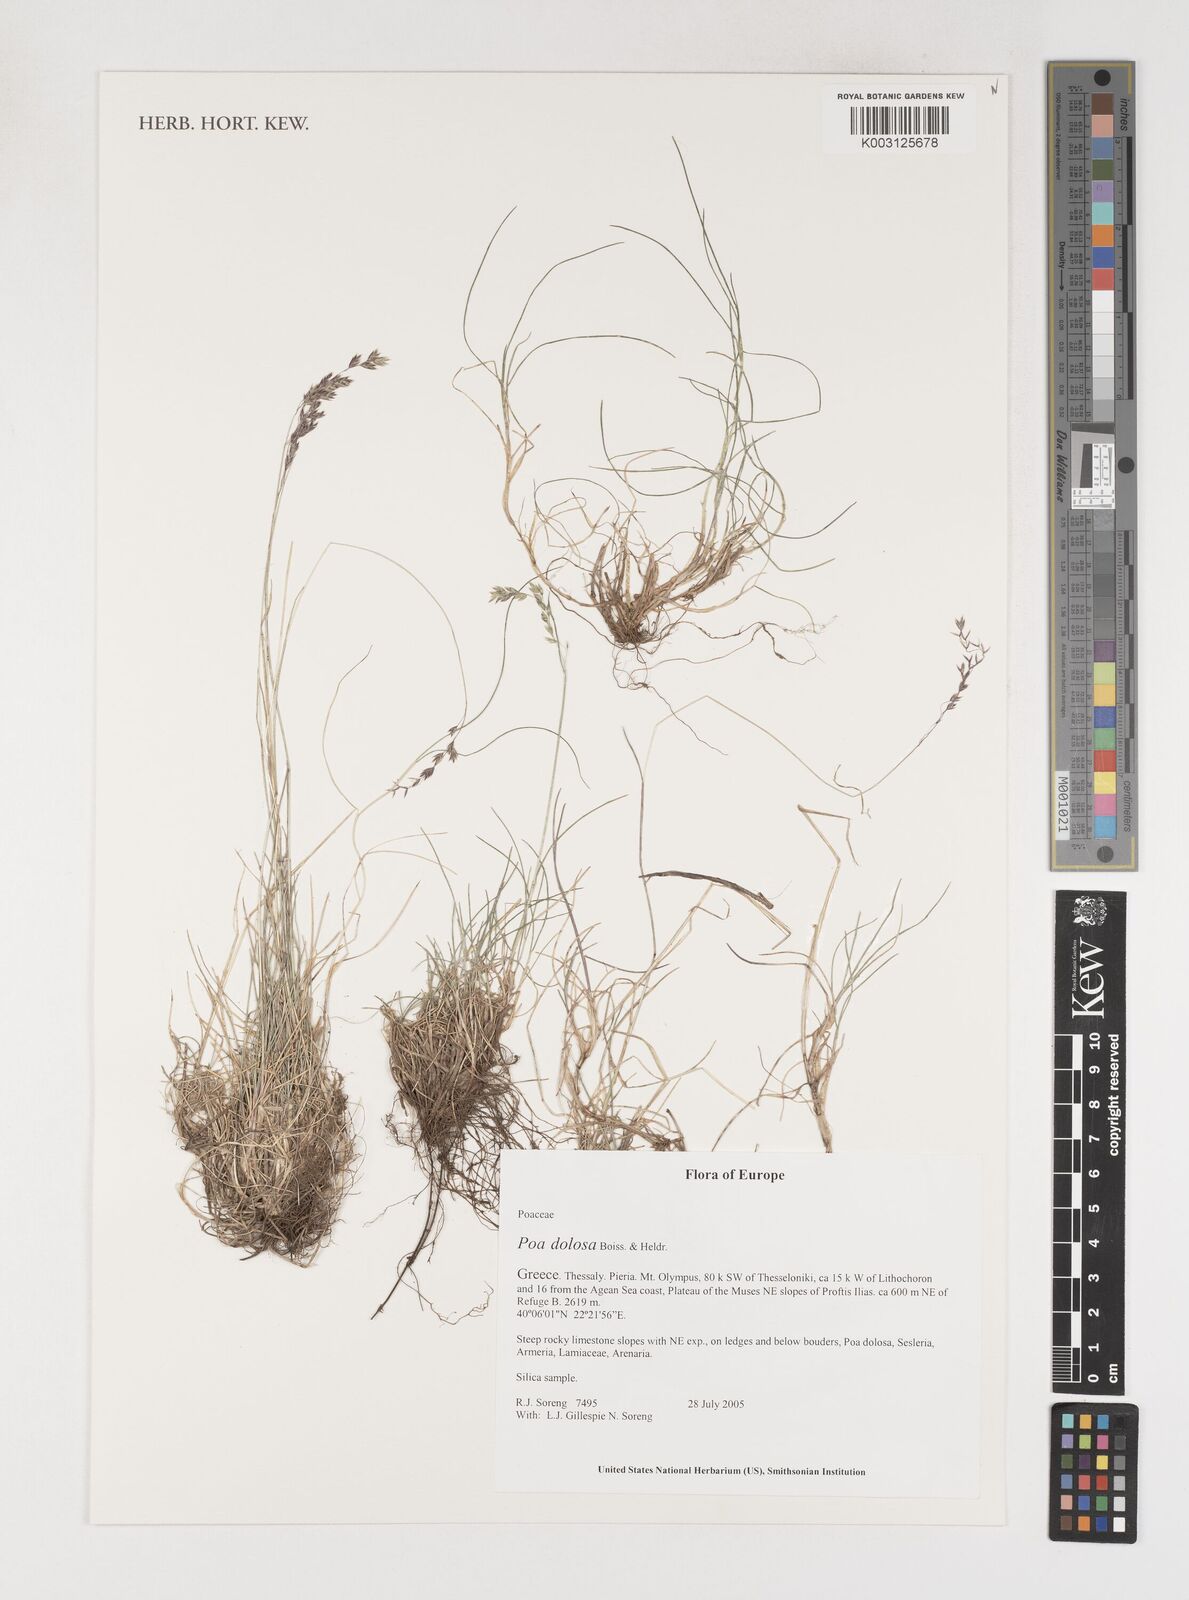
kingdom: Plantae
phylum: Tracheophyta
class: Liliopsida
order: Poales
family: Poaceae
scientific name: Poaceae
